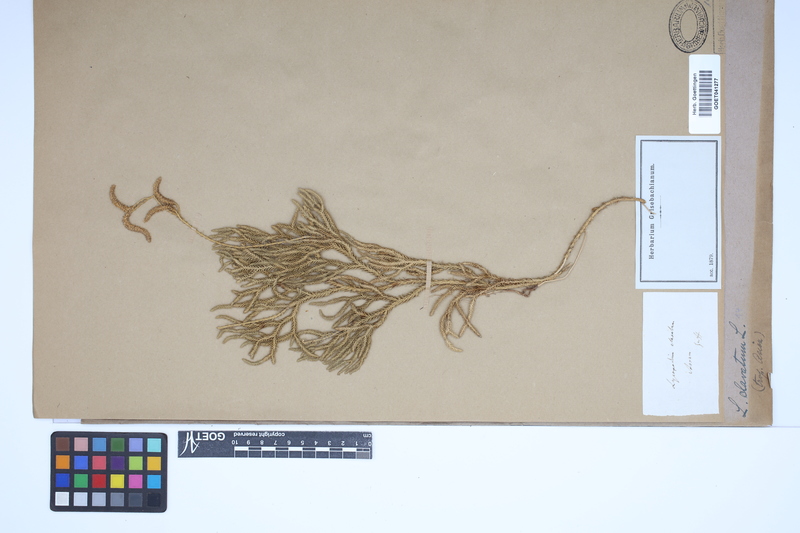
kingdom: Plantae
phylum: Tracheophyta
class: Lycopodiopsida
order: Lycopodiales
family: Lycopodiaceae
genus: Lycopodium
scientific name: Lycopodium clavatum
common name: Stag's-horn clubmoss
